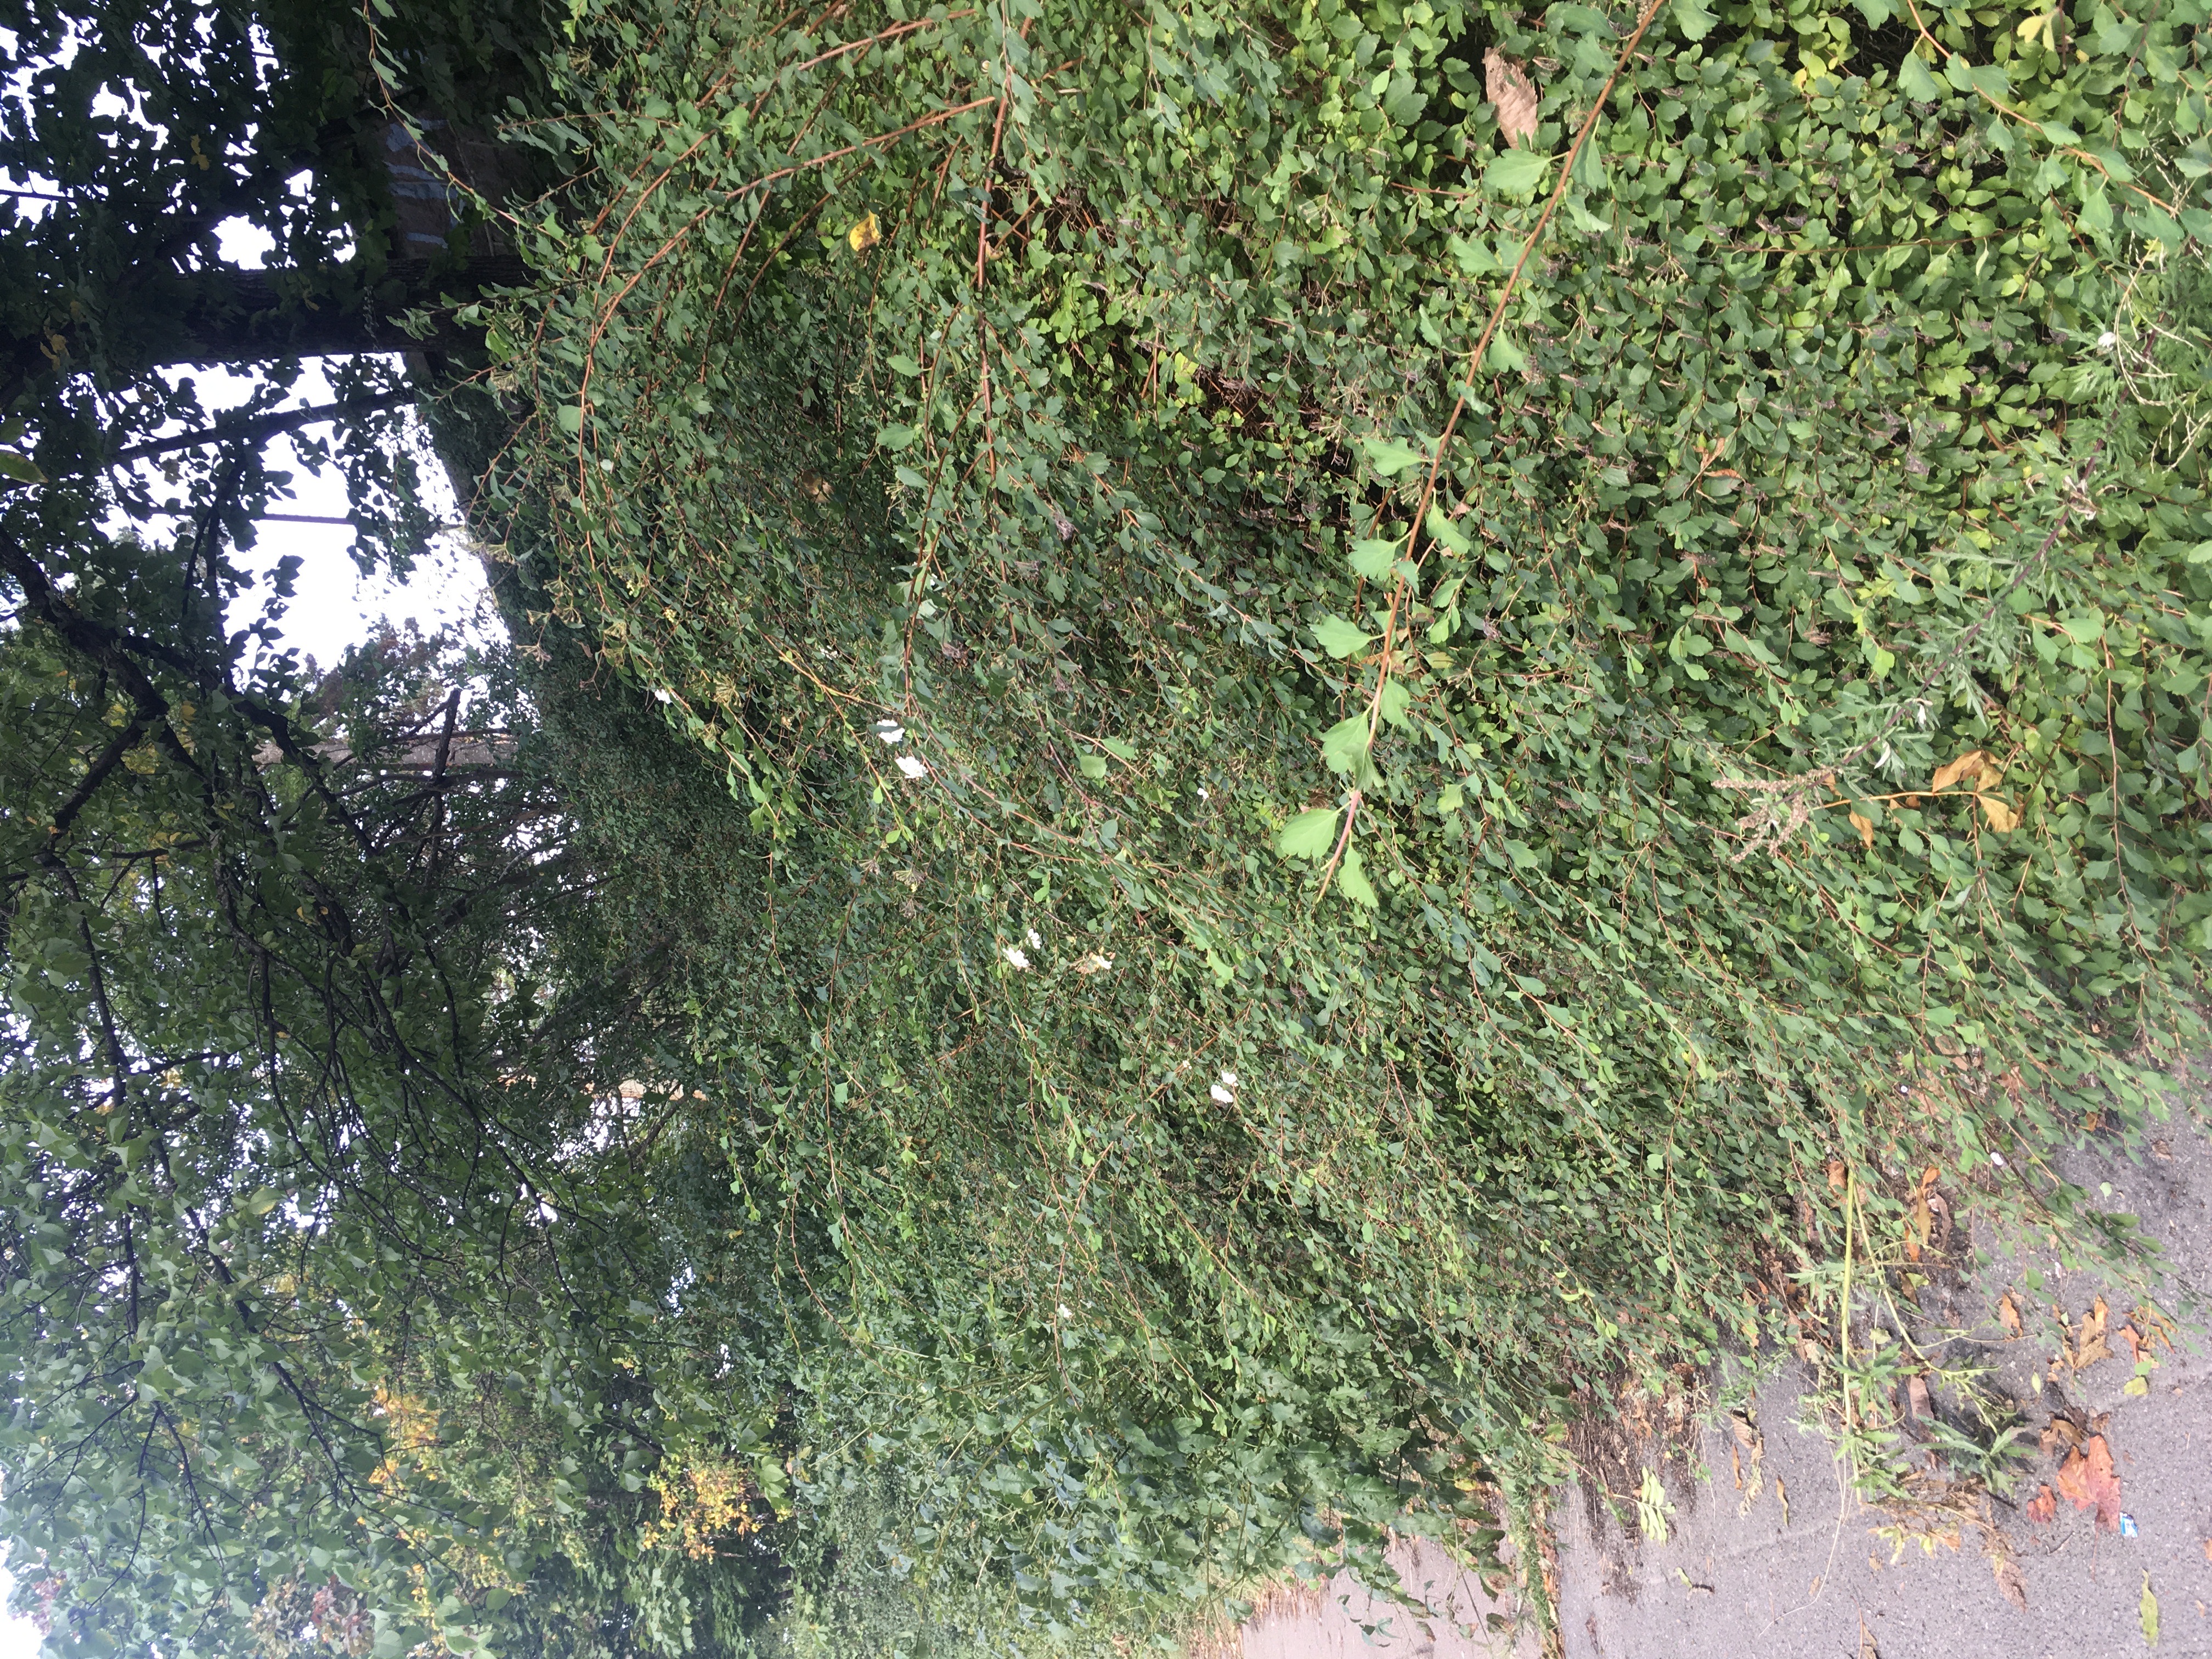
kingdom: Plantae
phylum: Tracheophyta
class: Magnoliopsida
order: Rosales
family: Rosaceae
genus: Spiraea
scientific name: Spiraea trilobata
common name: sibirspirea
